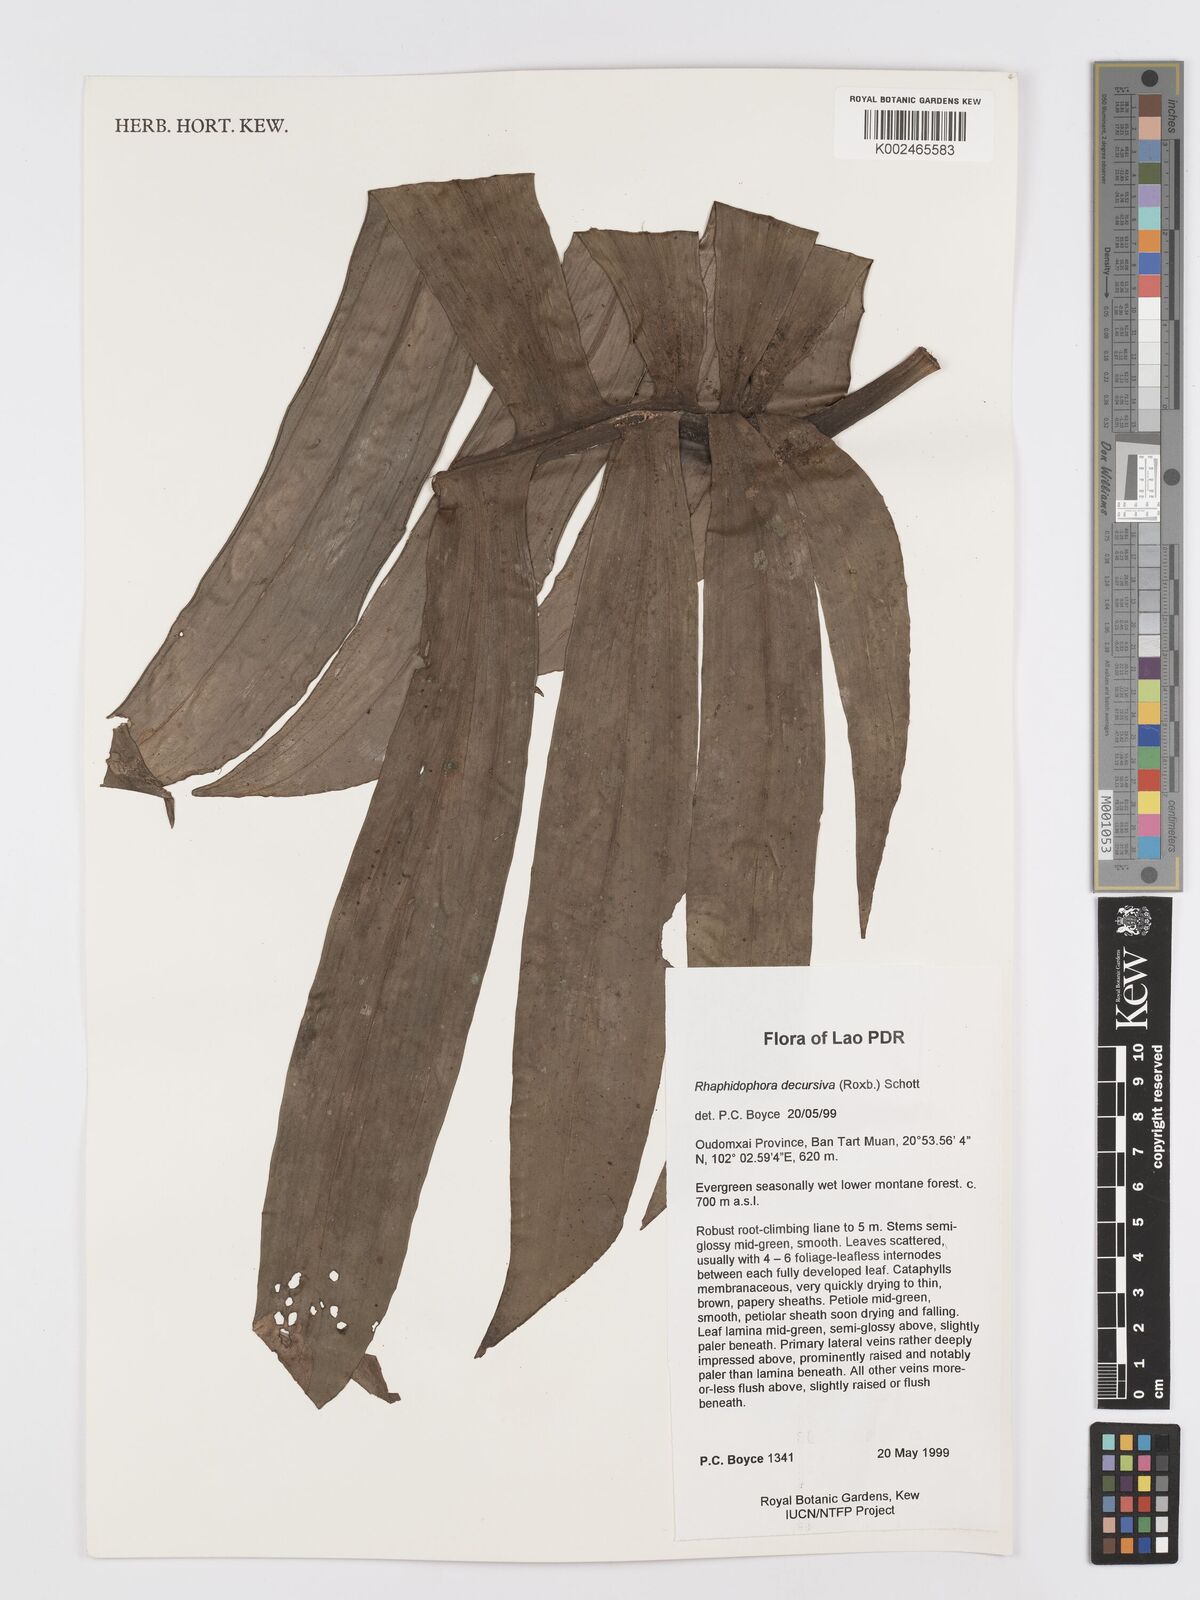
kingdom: Plantae
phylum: Tracheophyta
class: Liliopsida
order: Alismatales
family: Araceae
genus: Rhaphidophora
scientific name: Rhaphidophora decursiva
